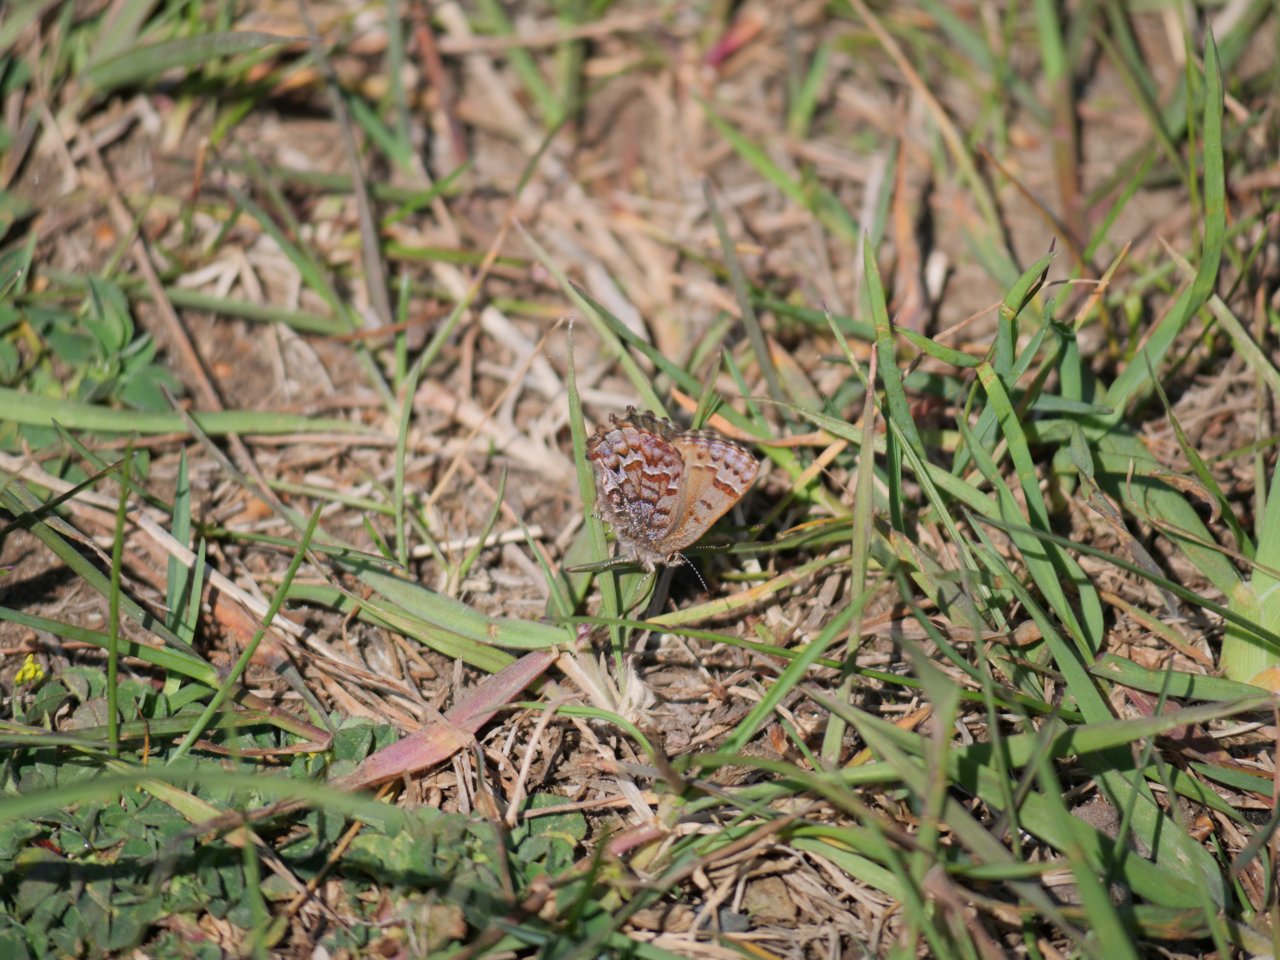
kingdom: Animalia
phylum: Arthropoda
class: Insecta
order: Lepidoptera
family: Lycaenidae
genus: Incisalia
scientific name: Incisalia niphon
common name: Eastern Pine Elfin
